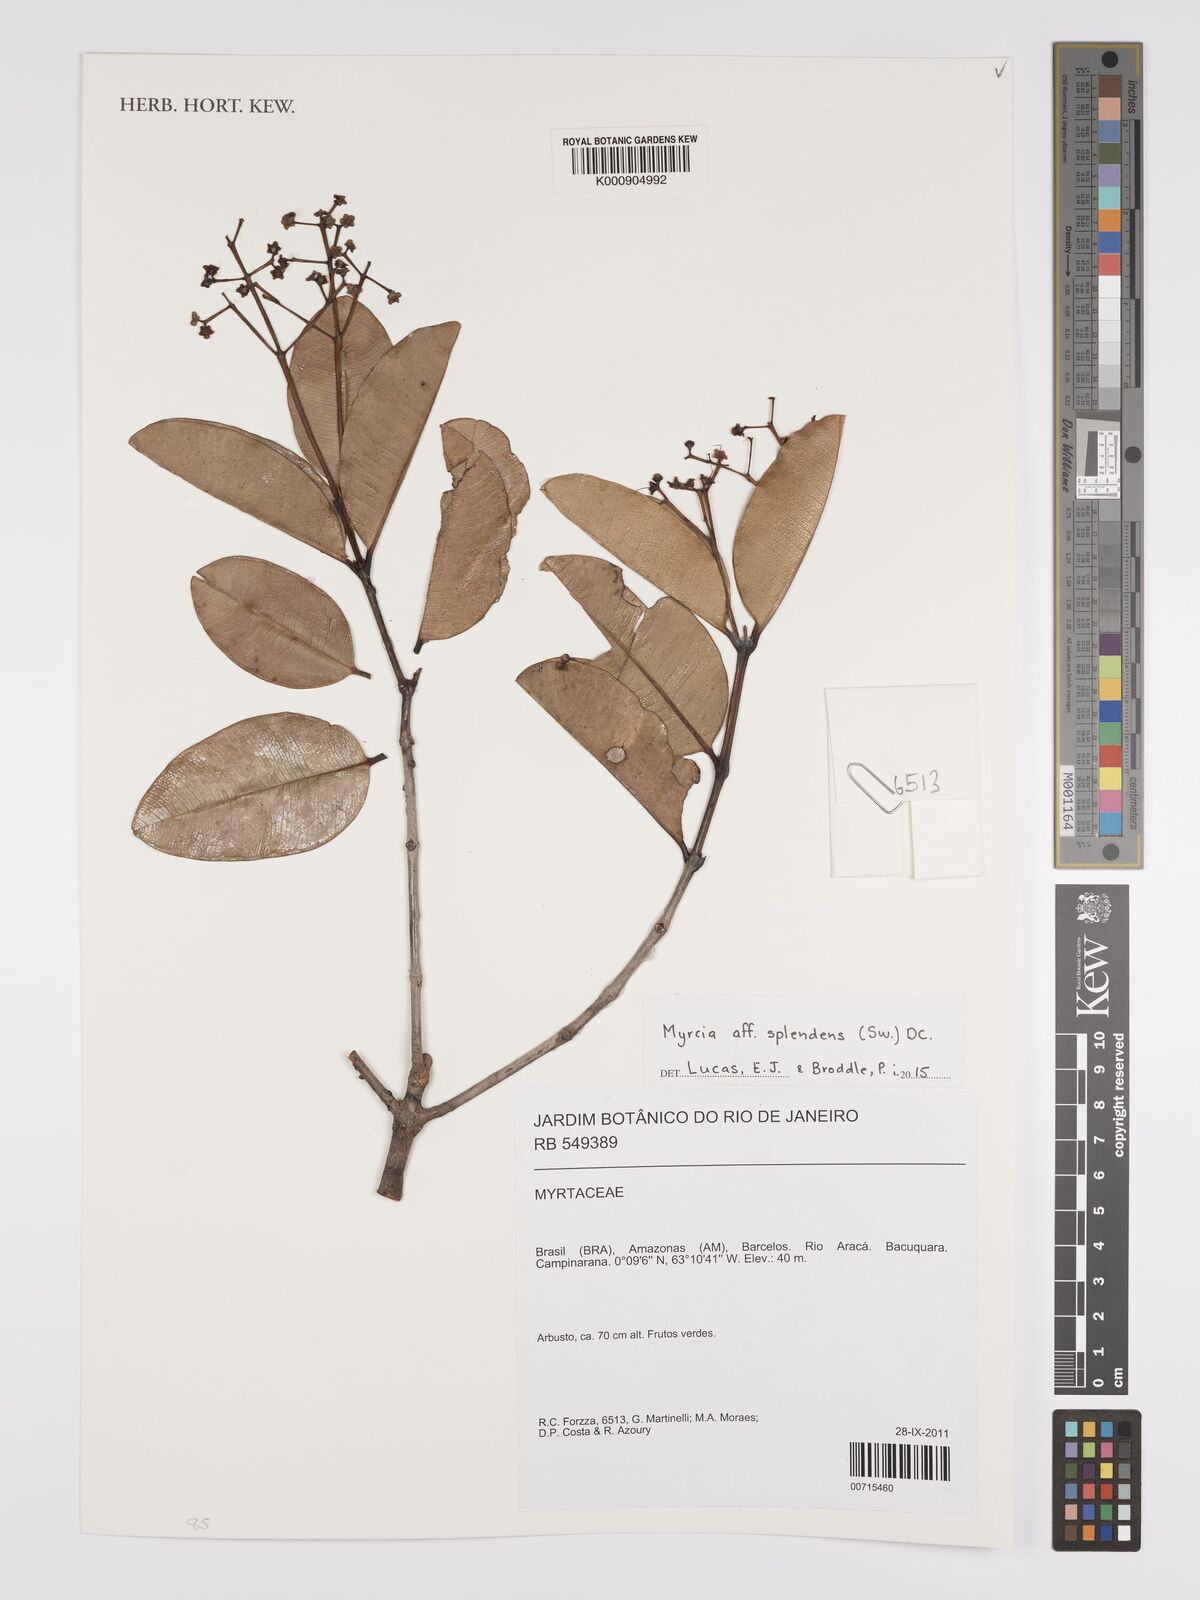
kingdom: Plantae
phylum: Tracheophyta
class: Magnoliopsida
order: Myrtales
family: Myrtaceae
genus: Myrcia
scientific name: Myrcia splendens
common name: Surinam cherry
